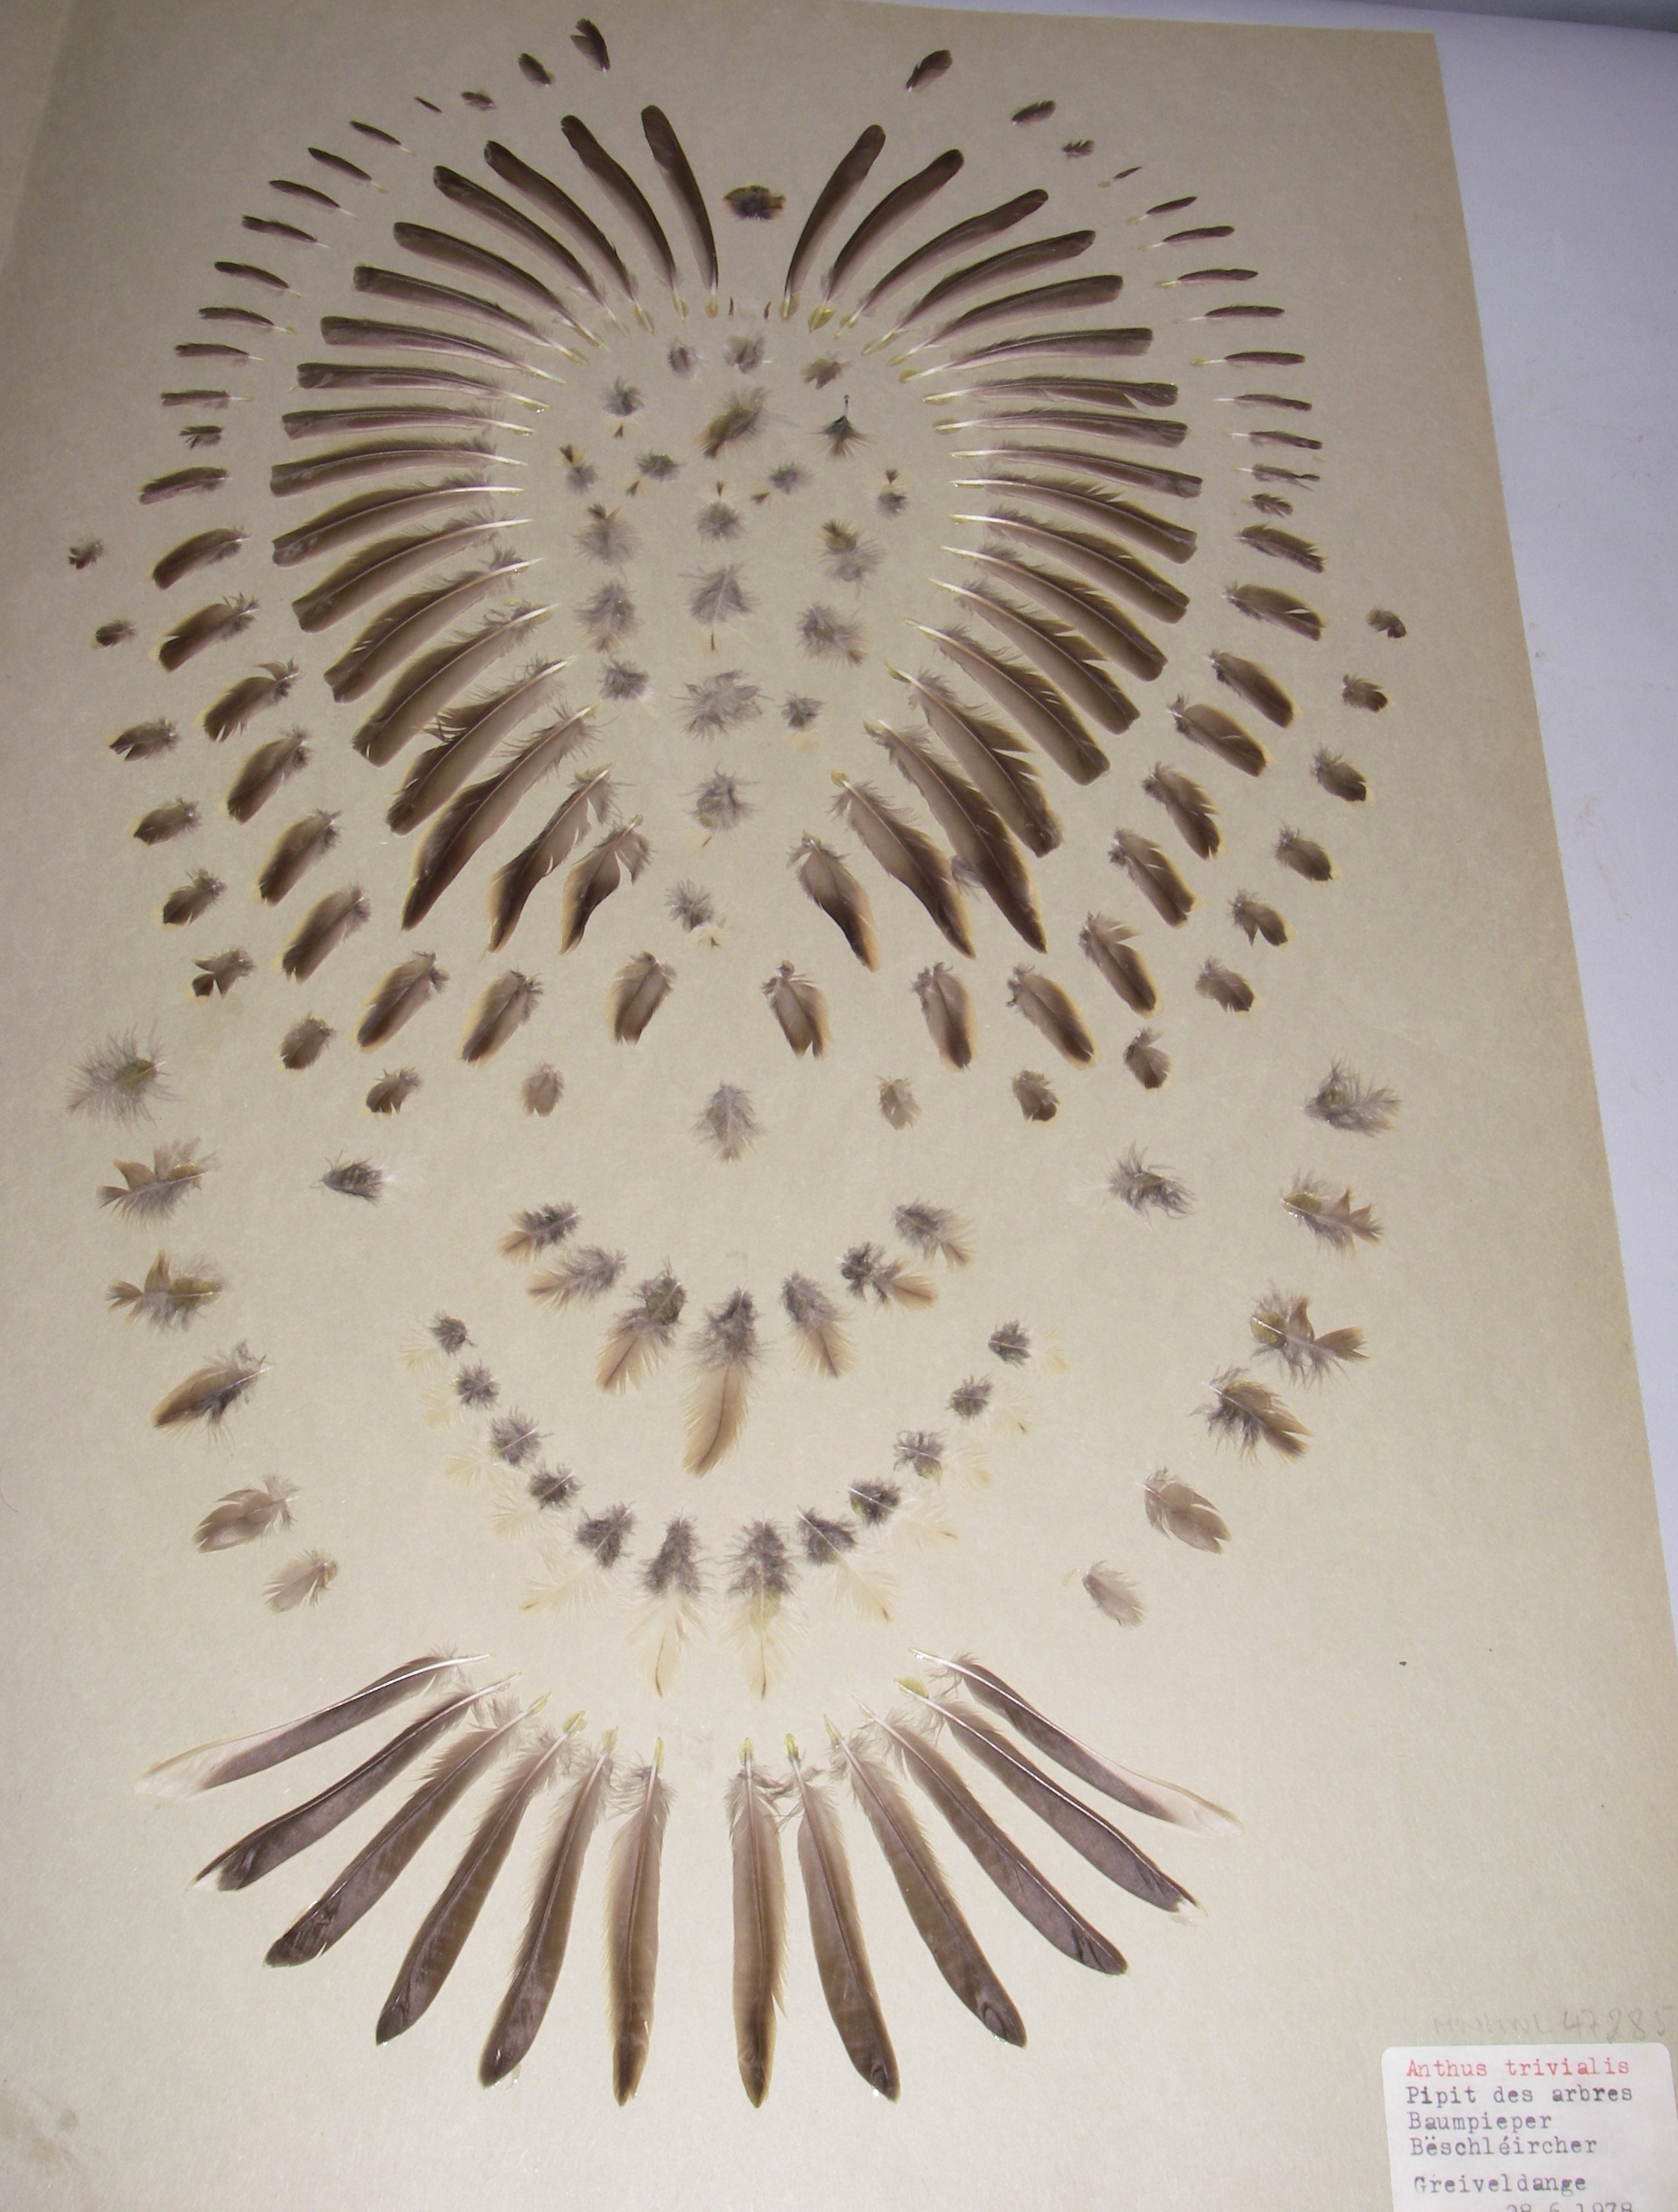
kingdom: Animalia
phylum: Chordata
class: Aves
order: Passeriformes
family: Motacillidae
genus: Anthus
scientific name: Anthus trivialis
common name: Tree pipit
